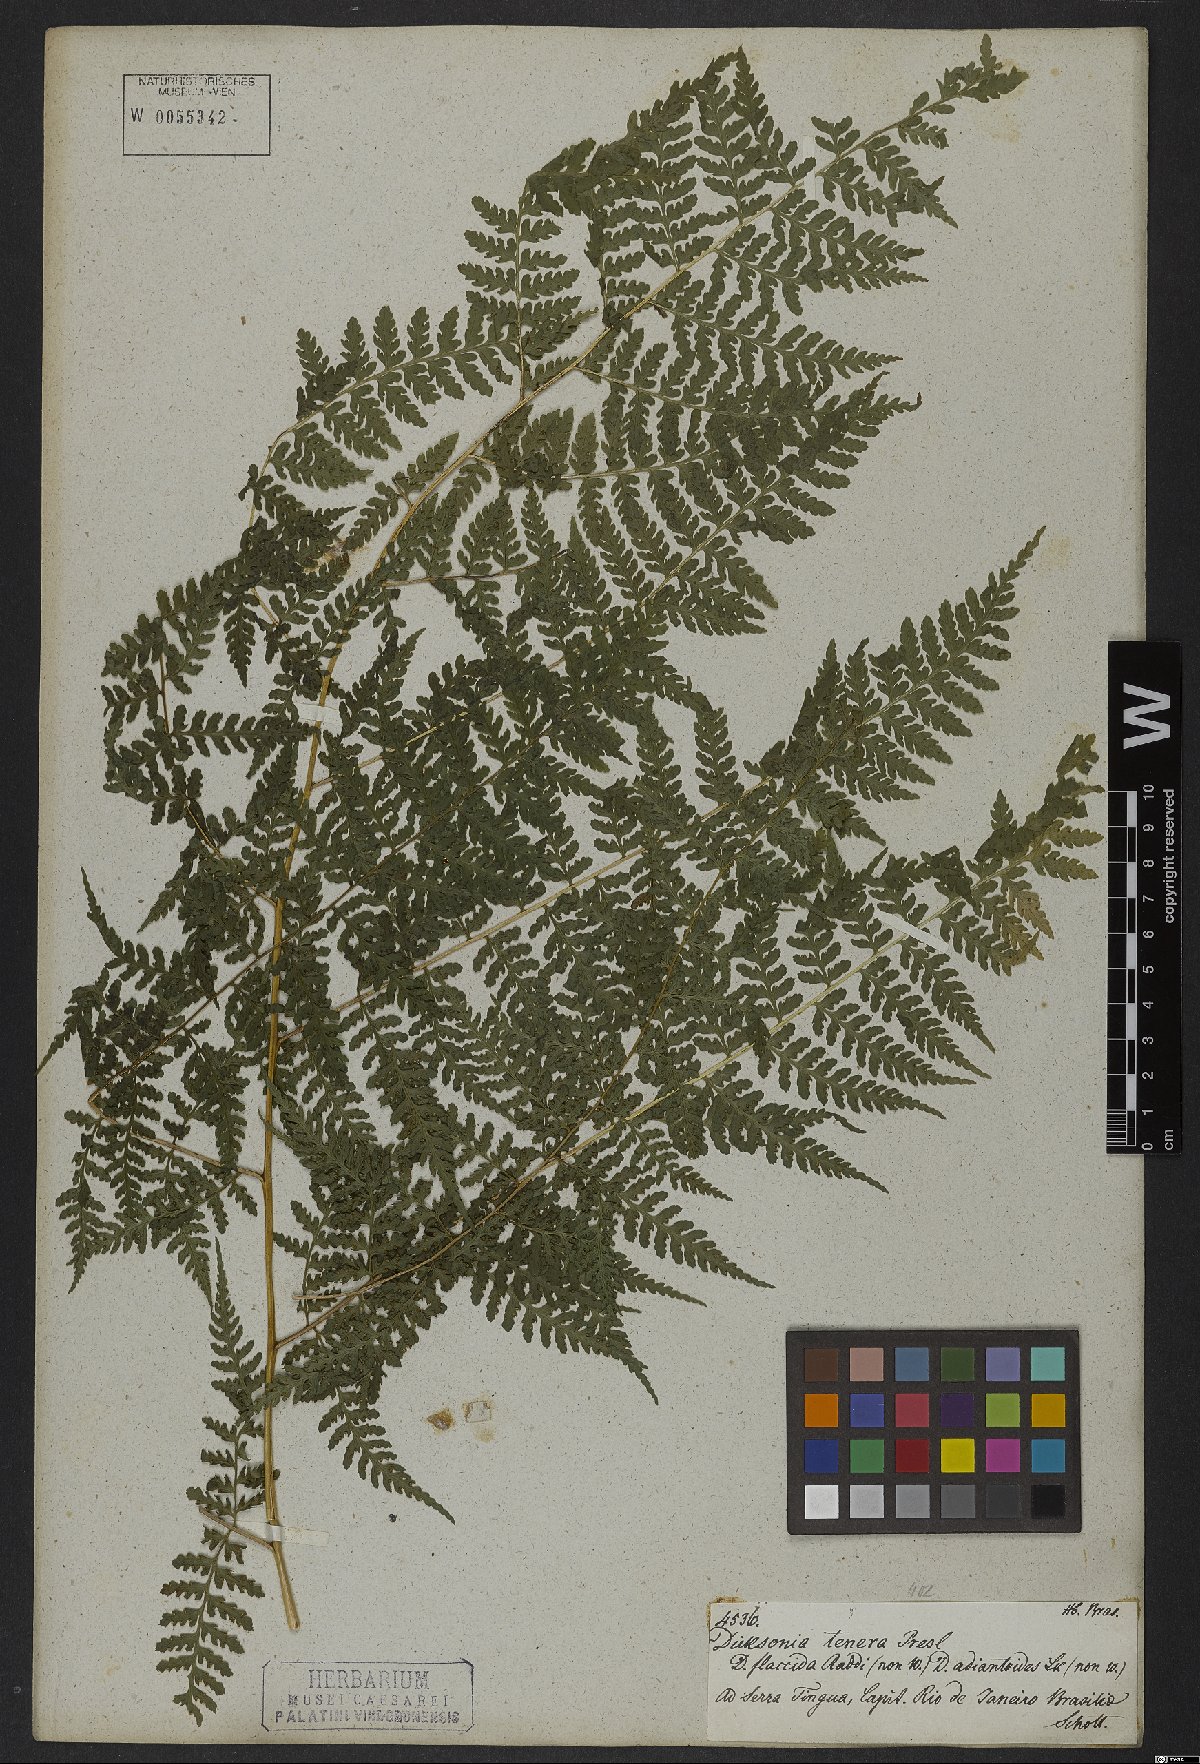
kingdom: Plantae
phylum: Tracheophyta
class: Polypodiopsida
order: Polypodiales
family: Dennstaedtiaceae
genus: Mucura
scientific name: Mucura globulifera
